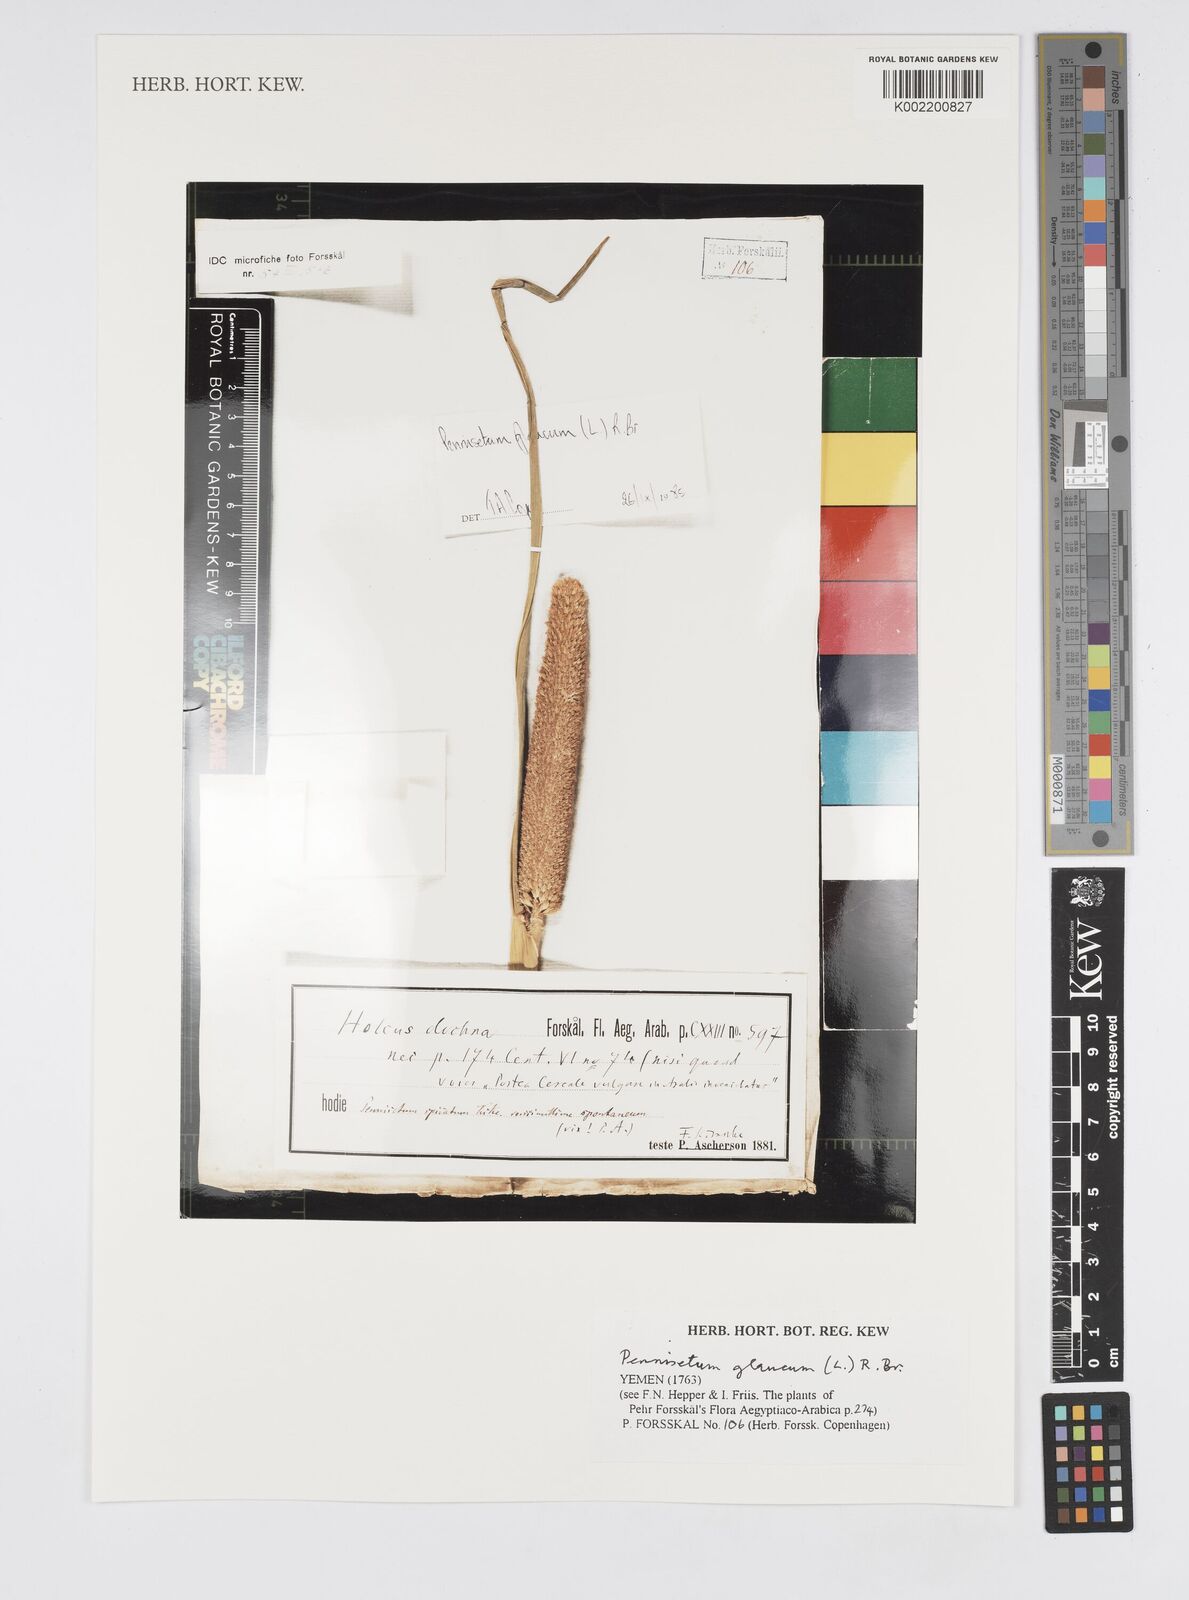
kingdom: Plantae
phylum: Tracheophyta
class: Liliopsida
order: Poales
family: Poaceae
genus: Cenchrus
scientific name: Cenchrus americanus
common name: Pearl millet
